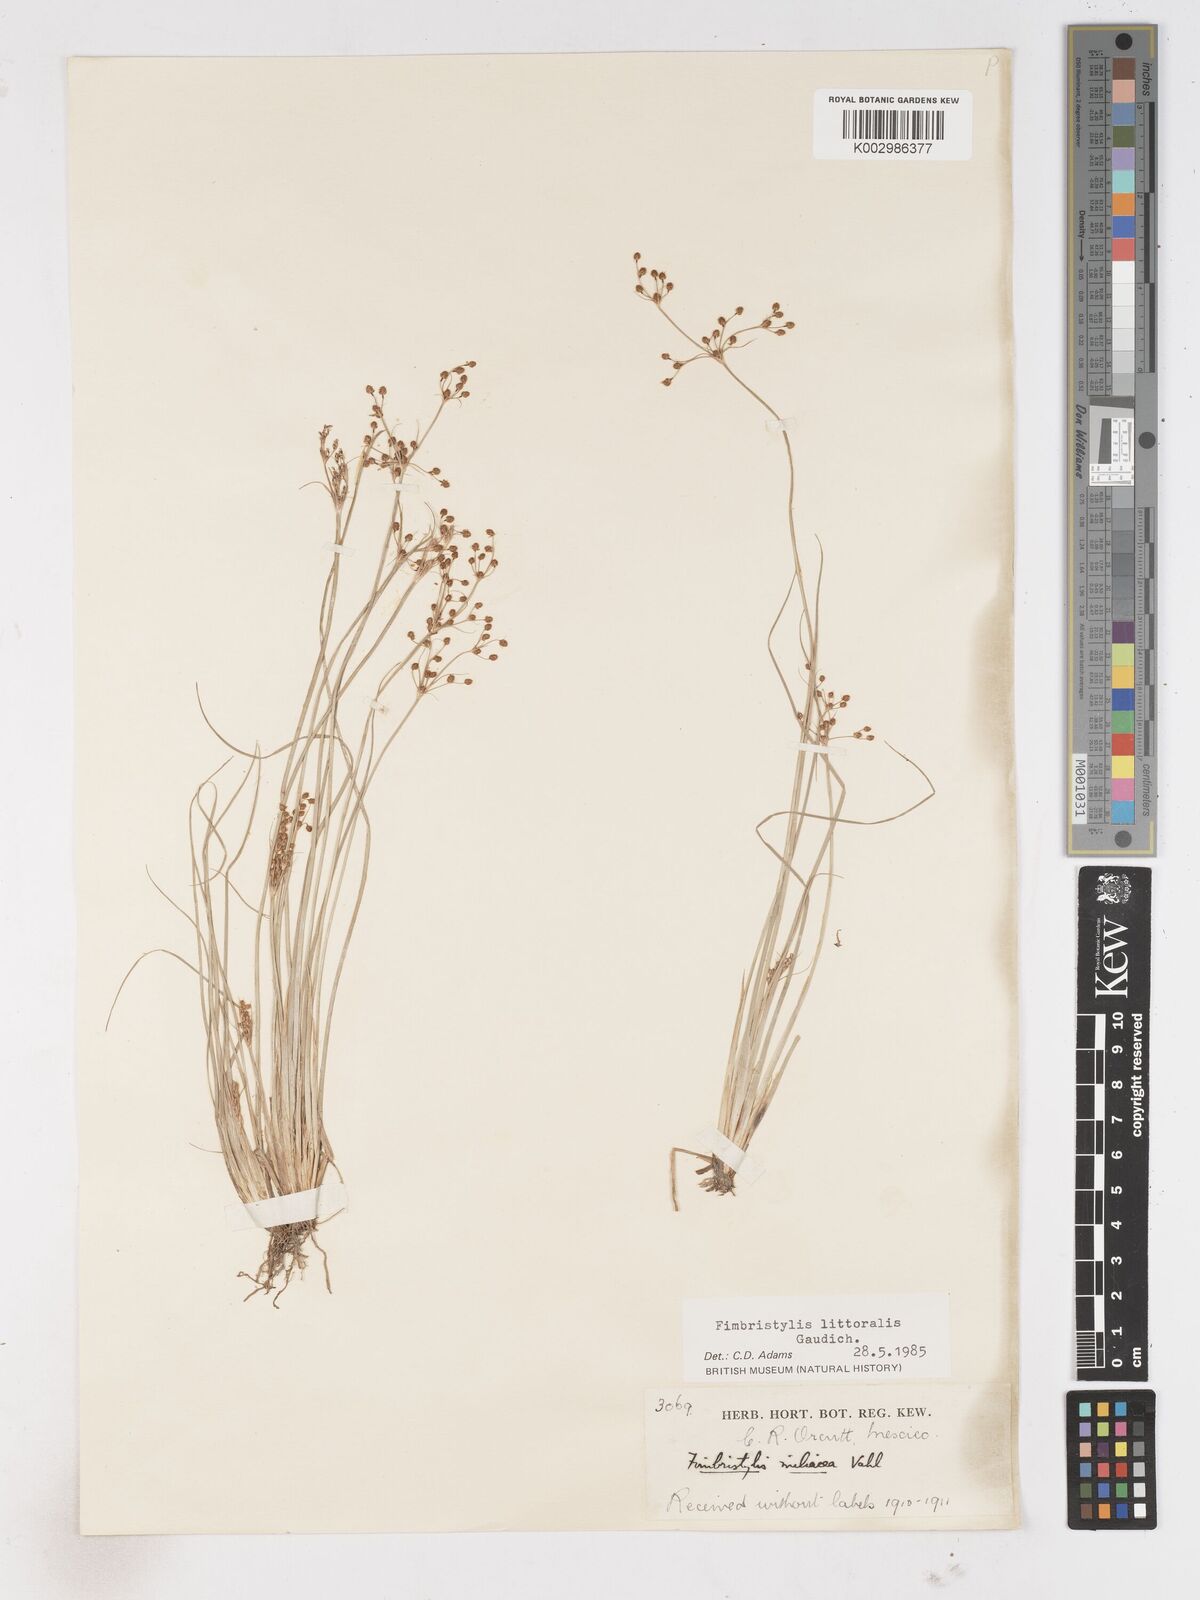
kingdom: Plantae
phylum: Tracheophyta
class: Liliopsida
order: Poales
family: Cyperaceae
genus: Fimbristylis
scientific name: Fimbristylis littoralis
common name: Fimbry
